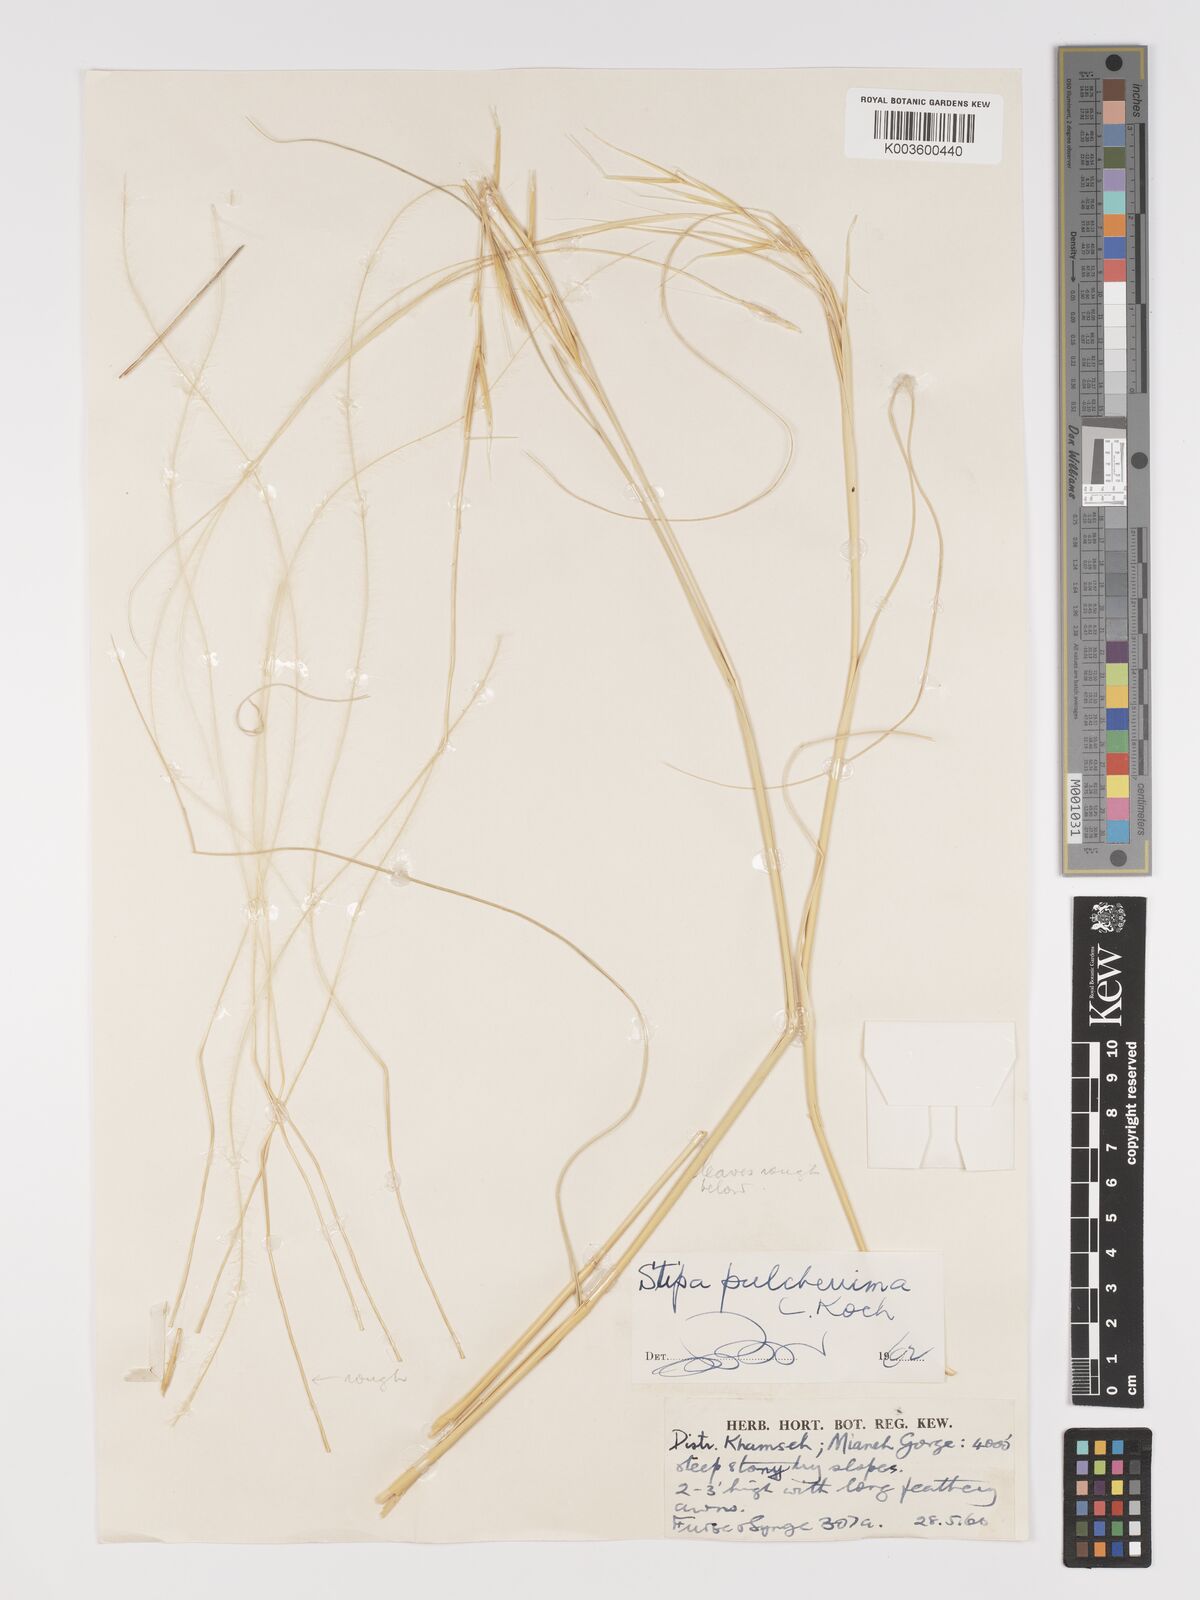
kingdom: Plantae
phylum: Tracheophyta
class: Liliopsida
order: Poales
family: Poaceae
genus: Stipa
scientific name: Stipa pulcherrima
